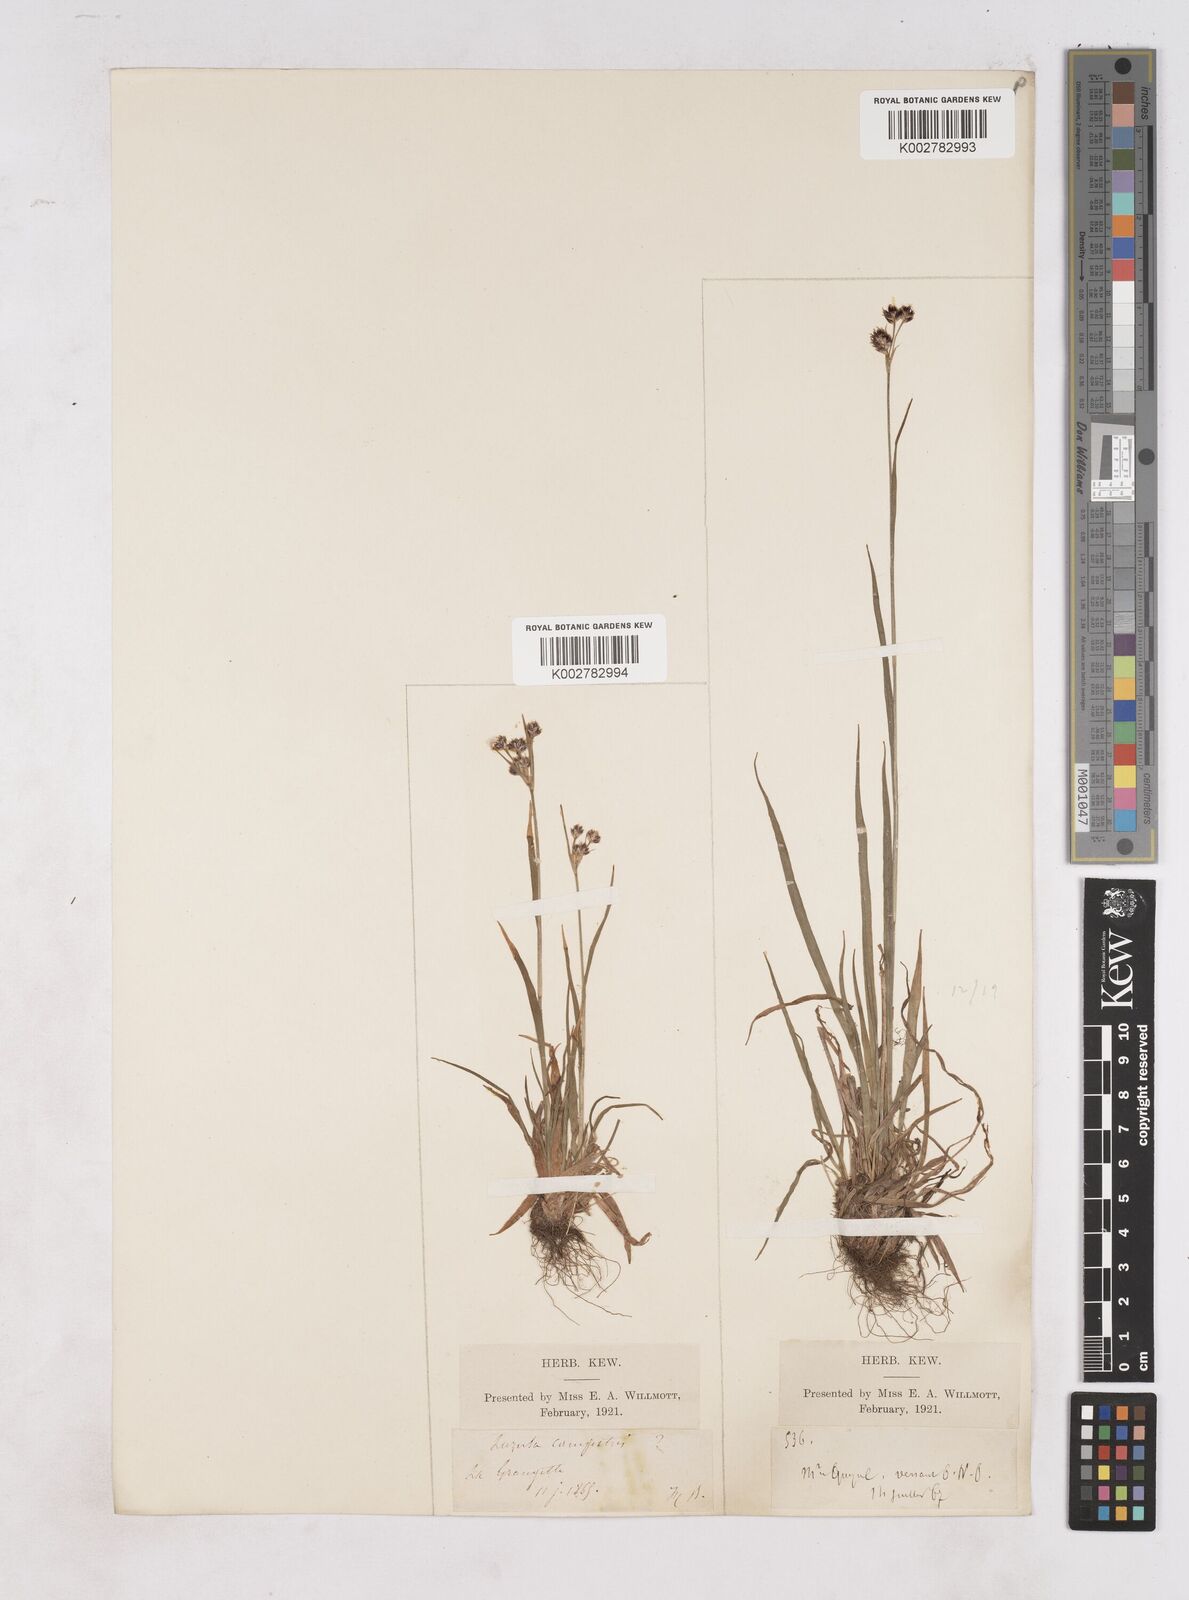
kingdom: Plantae
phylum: Tracheophyta
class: Liliopsida
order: Poales
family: Juncaceae
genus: Luzula
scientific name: Luzula campestris
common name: Field wood-rush
